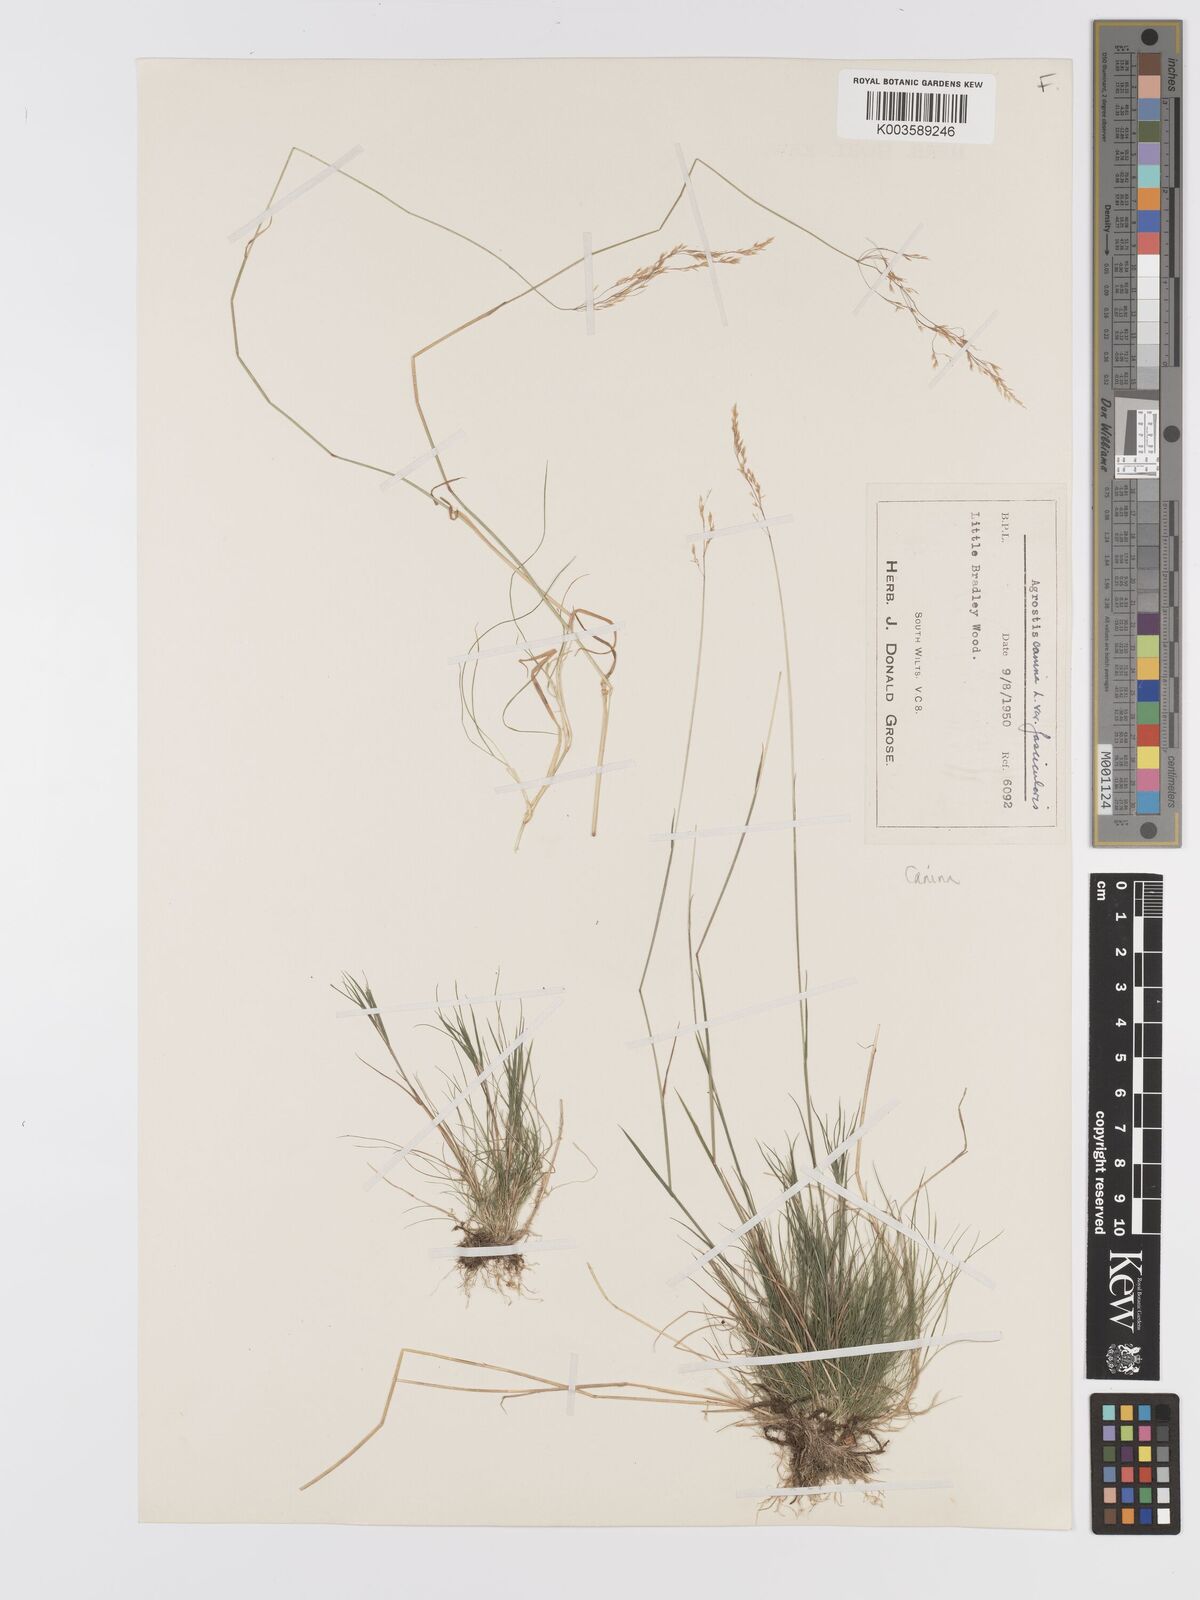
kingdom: Plantae
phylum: Tracheophyta
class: Liliopsida
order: Poales
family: Poaceae
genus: Agrostis
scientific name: Agrostis canina
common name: Velvet bent
